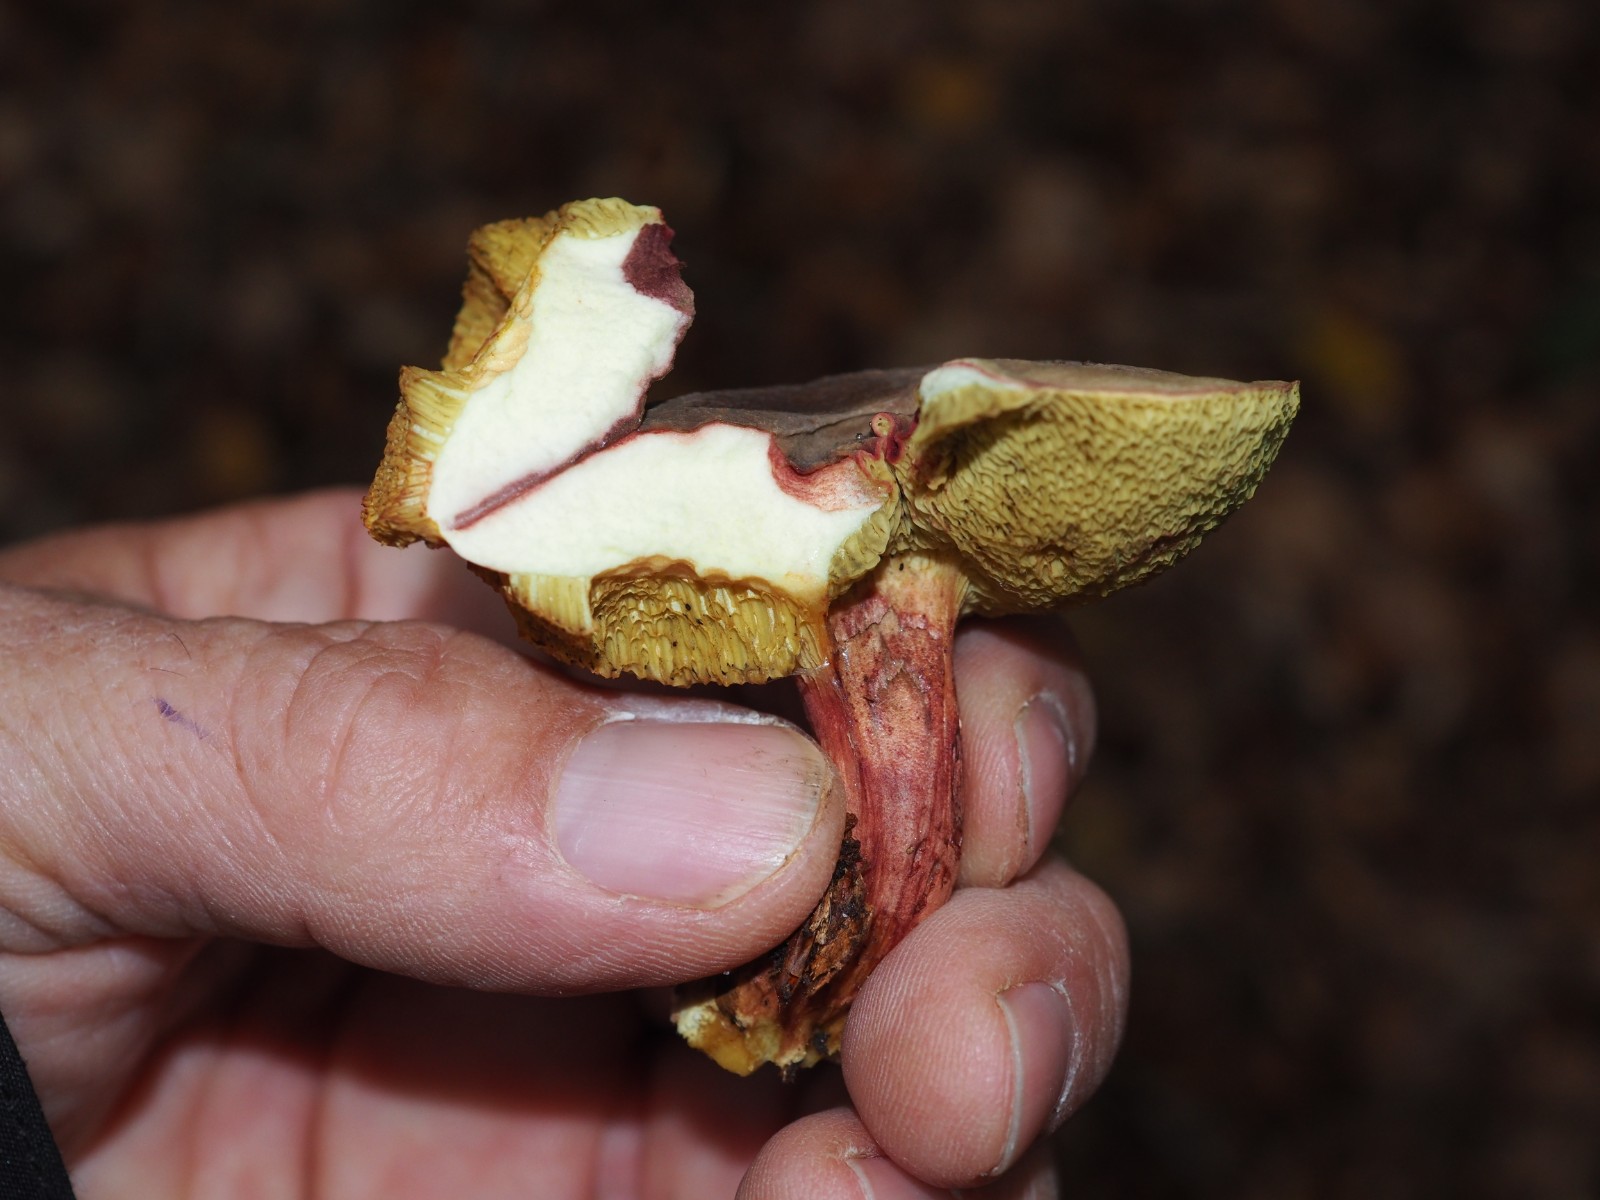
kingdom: Fungi
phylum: Basidiomycota
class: Agaricomycetes
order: Boletales
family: Boletaceae
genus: Xerocomellus
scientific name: Xerocomellus pruinatus
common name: dugget rørhat
